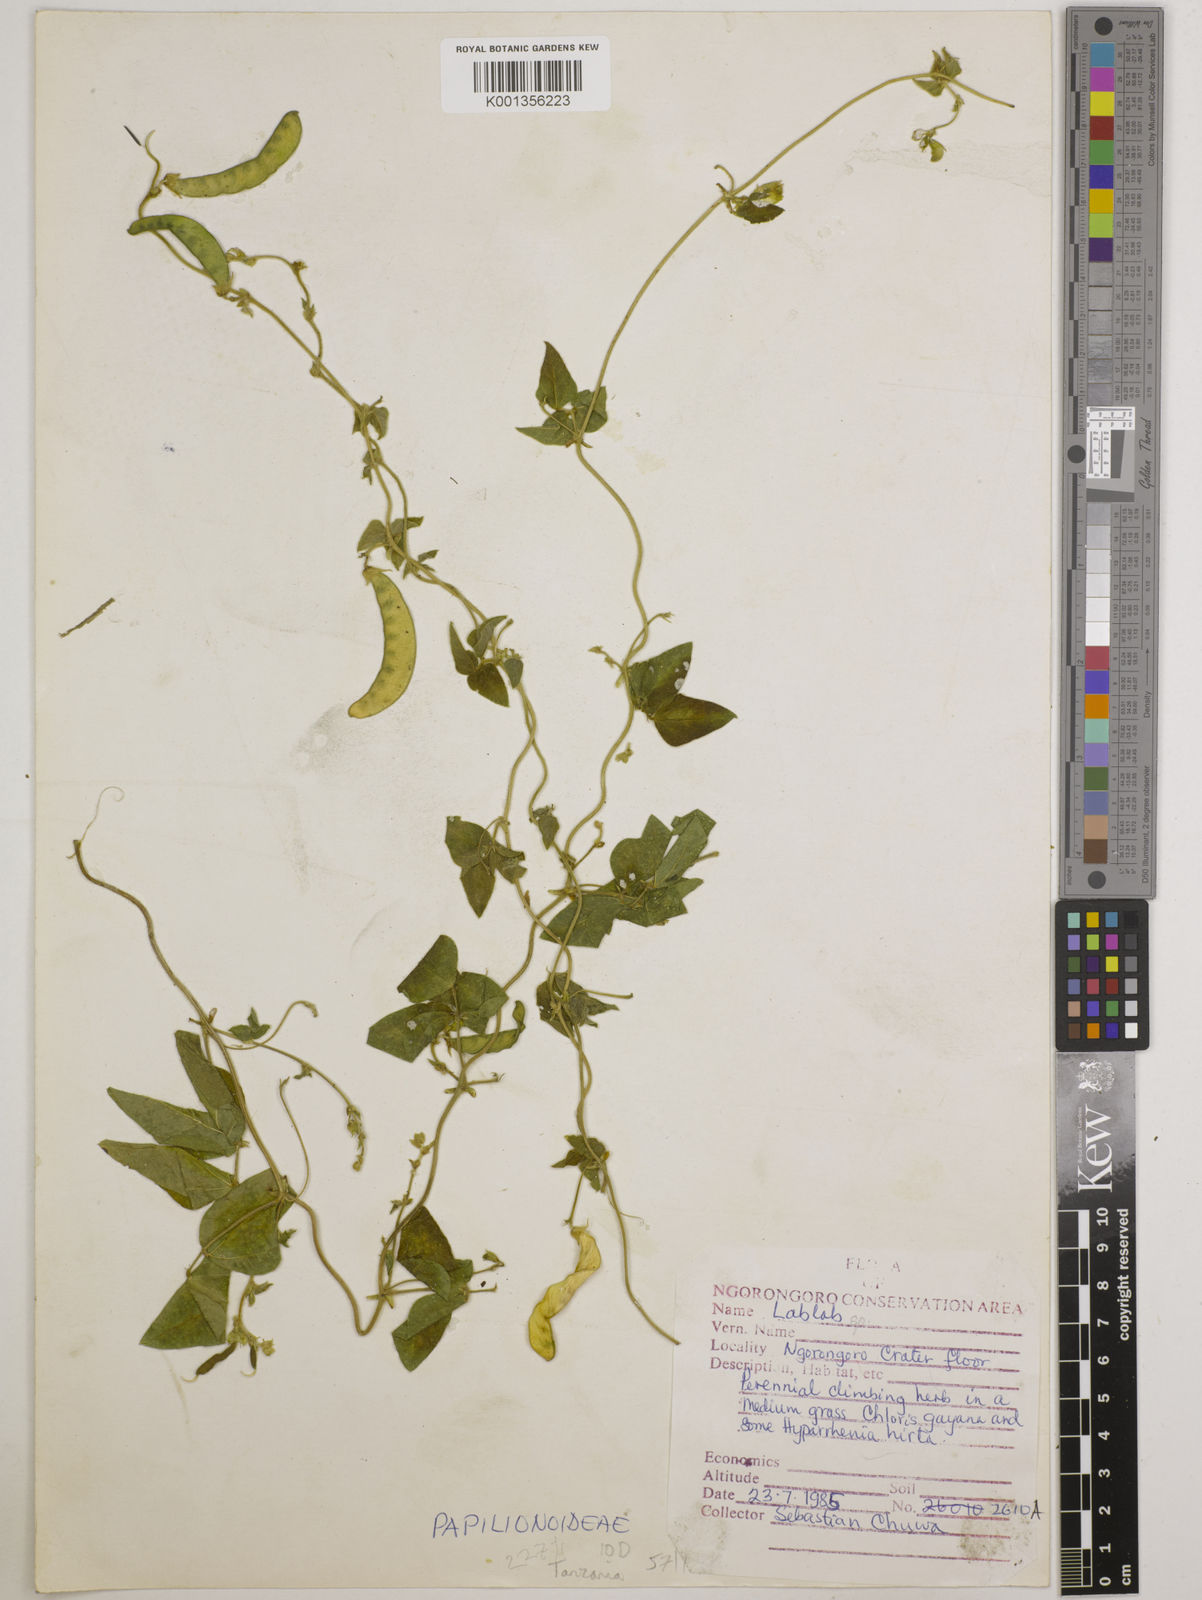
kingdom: Plantae
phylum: Tracheophyta
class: Magnoliopsida
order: Fabales
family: Fabaceae
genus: Lablab
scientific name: Lablab
